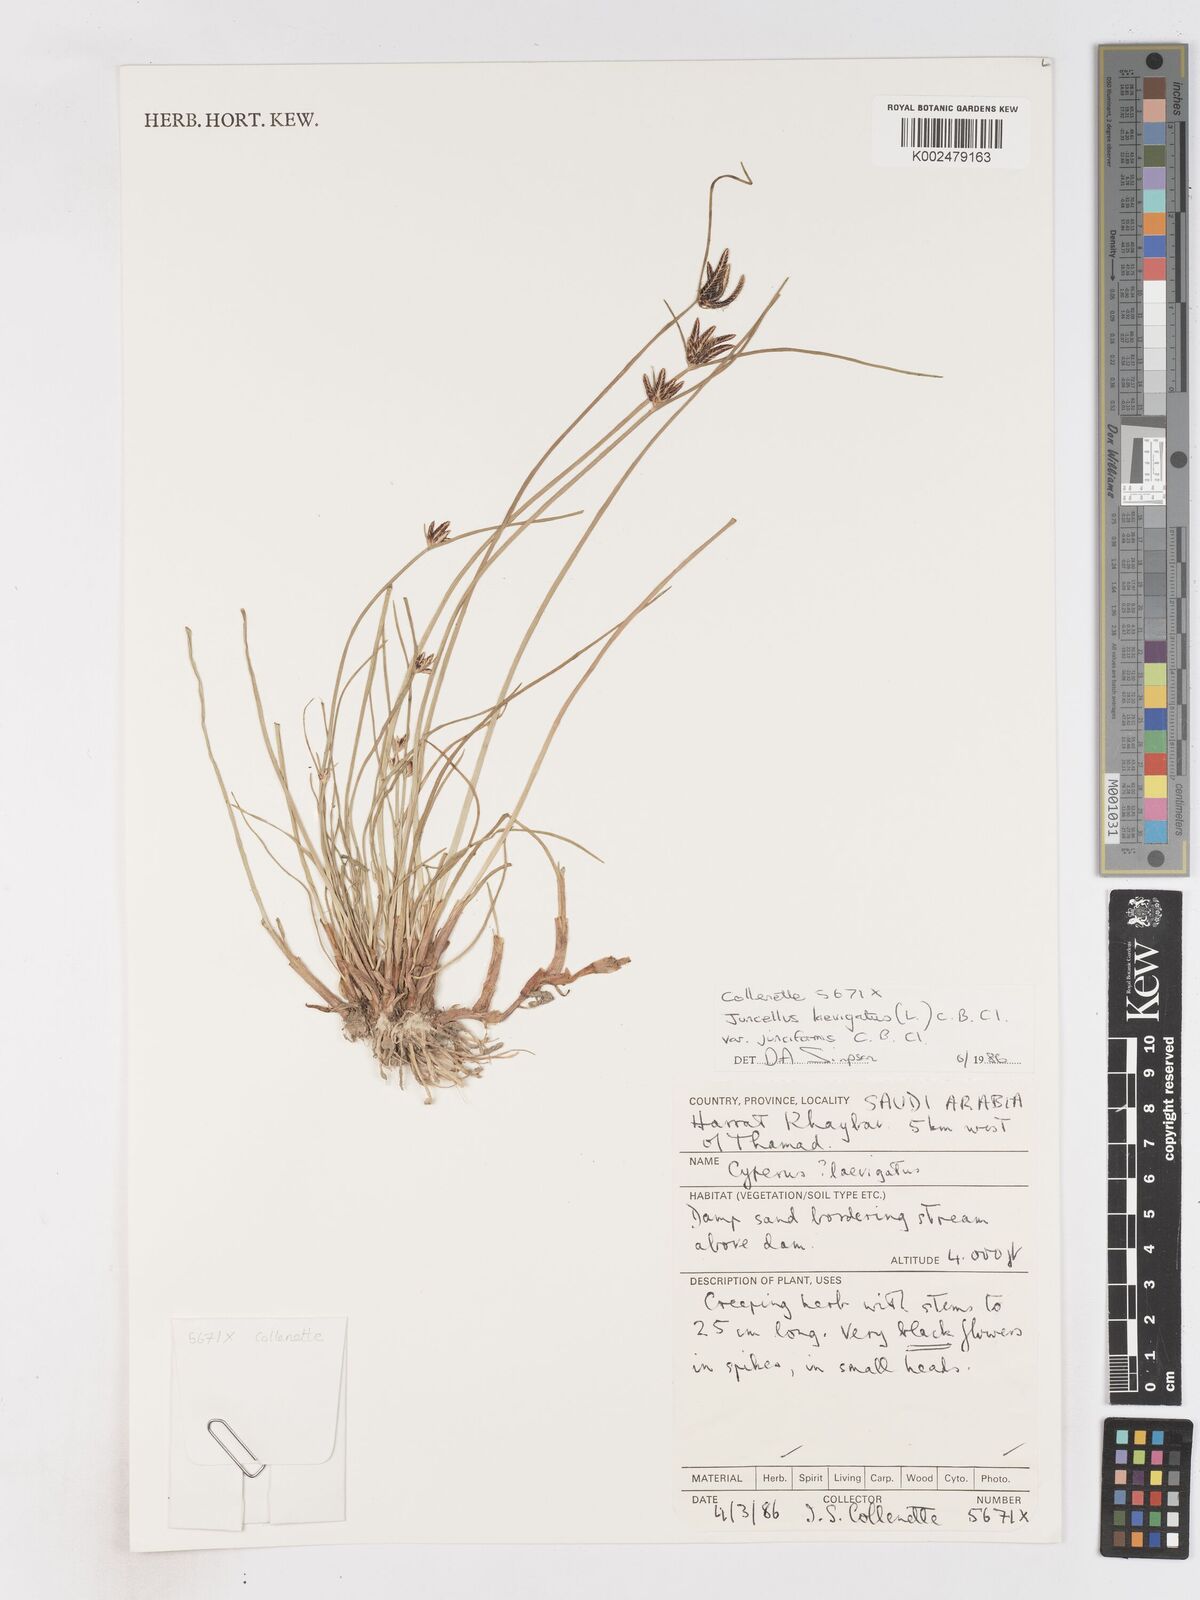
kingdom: Plantae
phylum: Tracheophyta
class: Liliopsida
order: Poales
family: Cyperaceae
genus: Cyperus
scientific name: Cyperus laevigatus
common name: Smooth flat sedge
